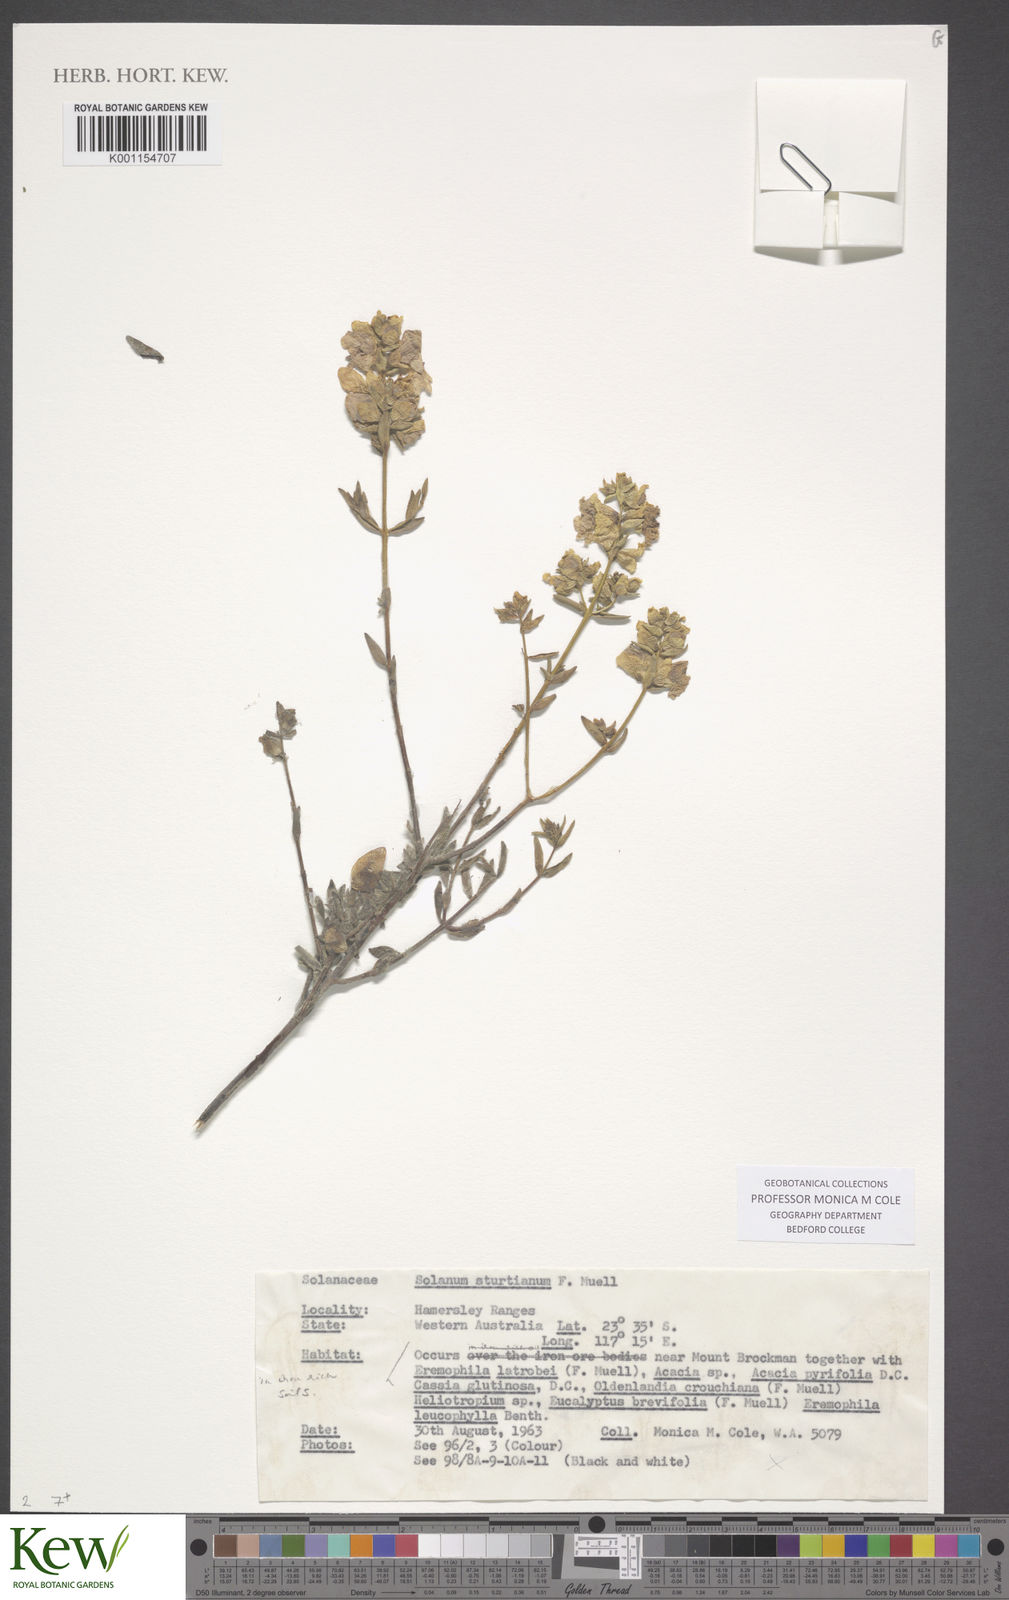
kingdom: Plantae
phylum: Tracheophyta
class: Magnoliopsida
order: Solanales
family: Solanaceae
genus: Solanum
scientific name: Solanum sturtianum
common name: Thargomindah nightshade
